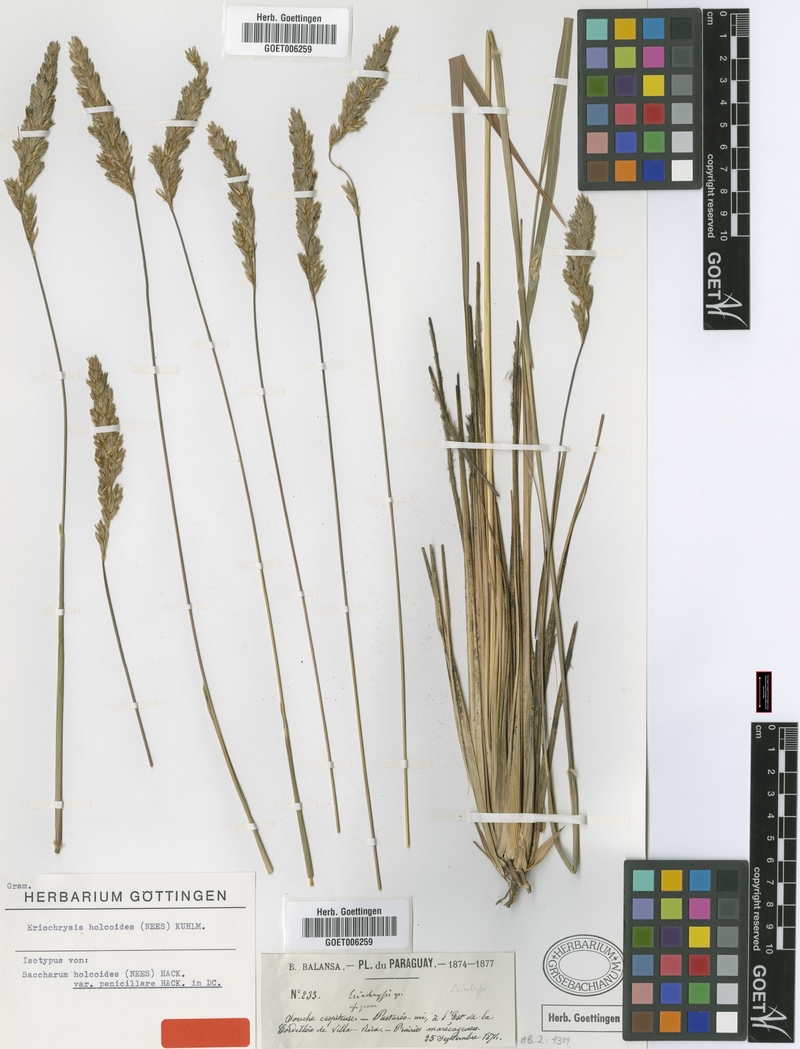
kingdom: Plantae
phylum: Tracheophyta
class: Liliopsida
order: Poales
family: Poaceae
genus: Eriochrysis
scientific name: Eriochrysis holcoides
